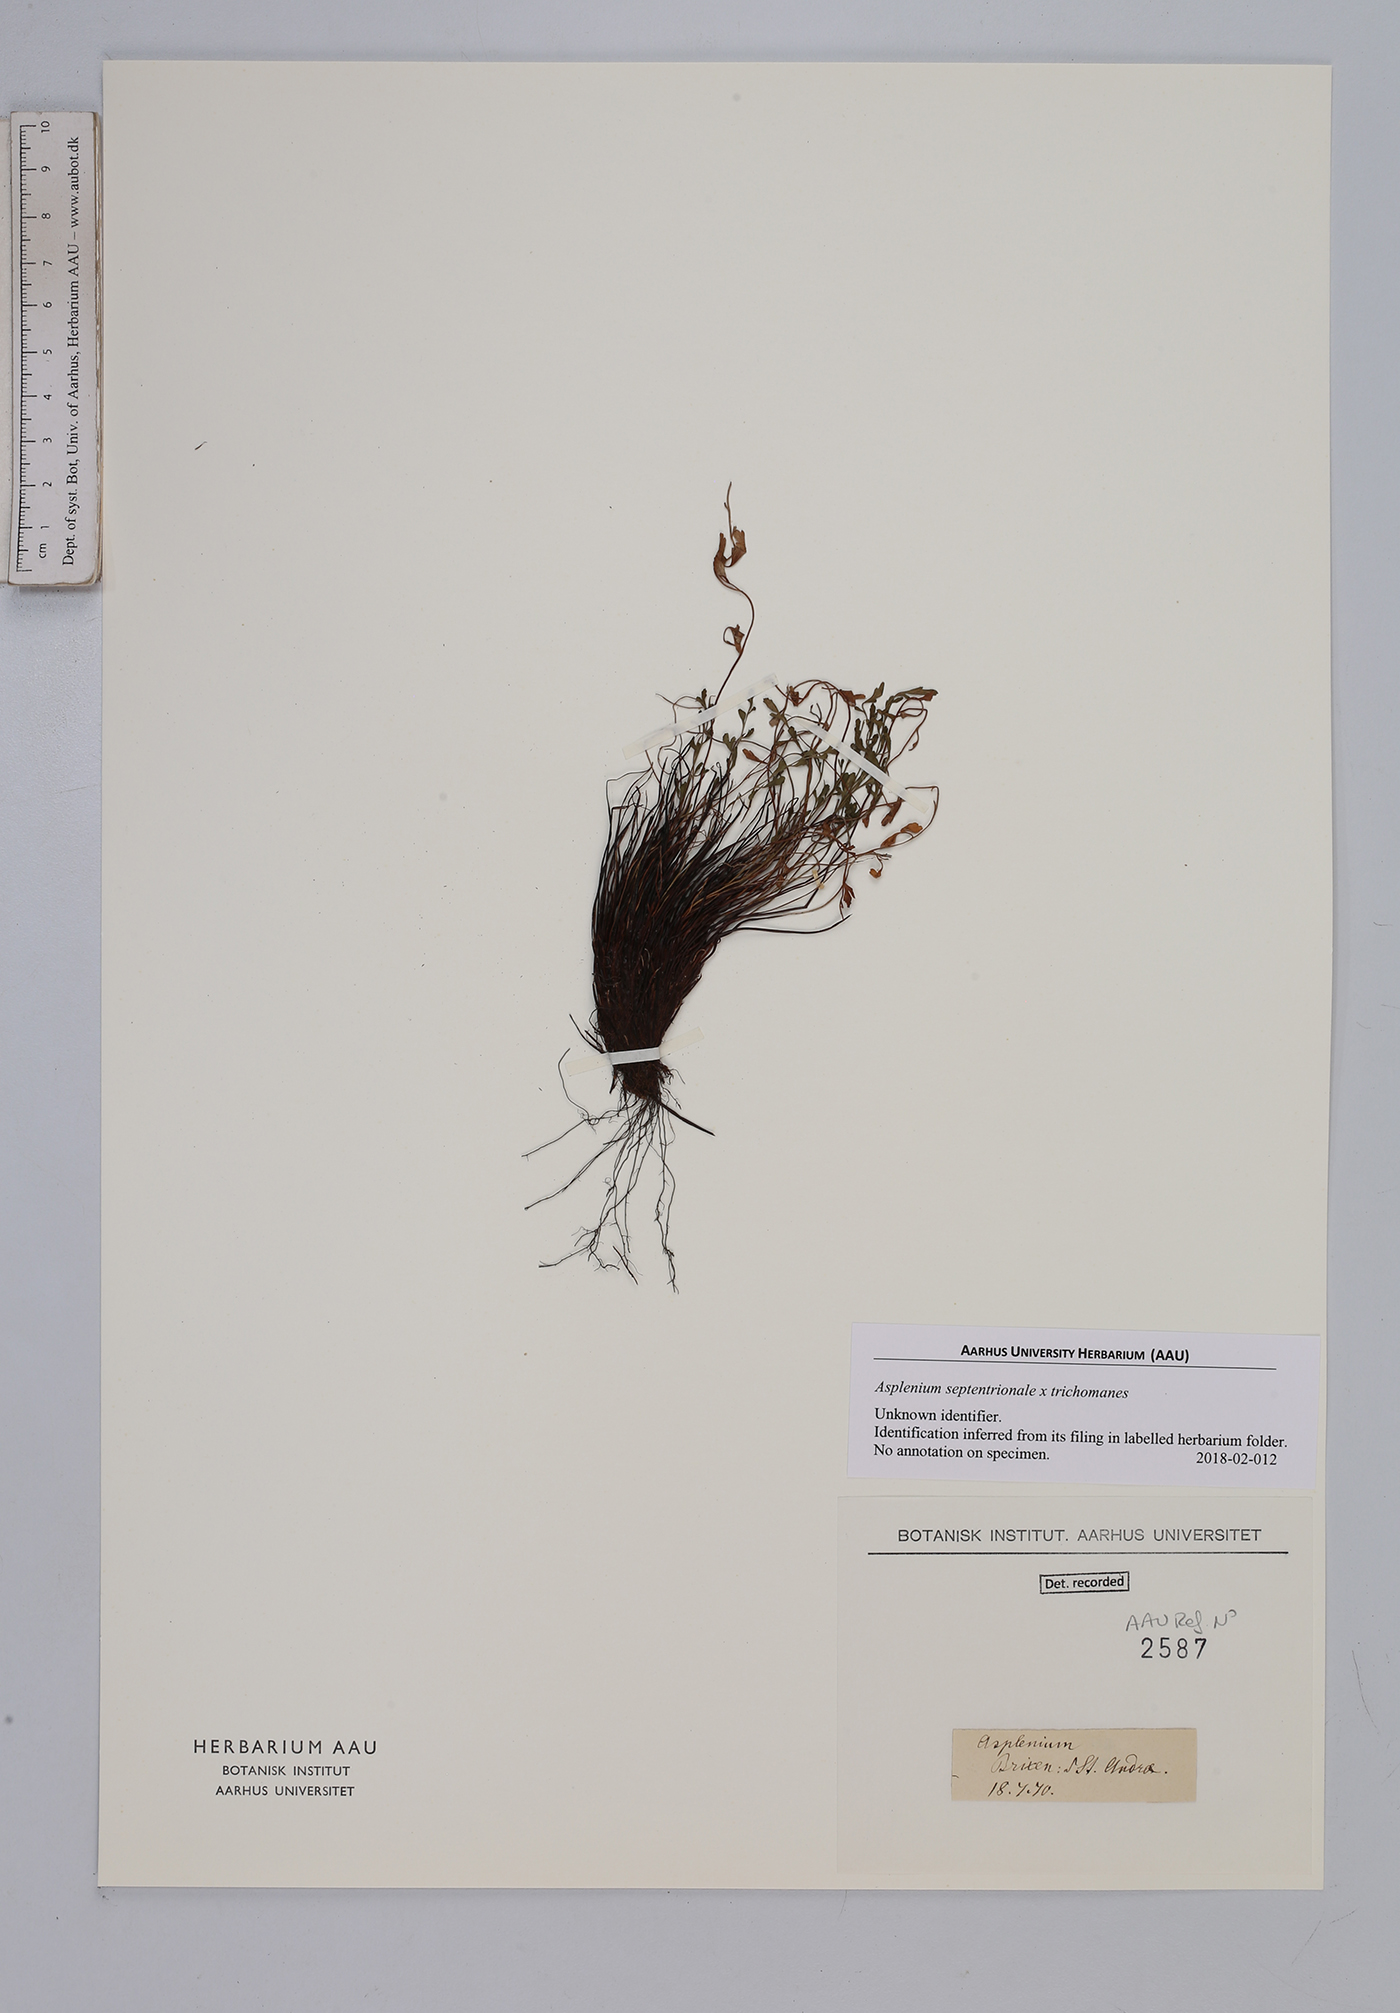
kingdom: Plantae
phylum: Tracheophyta
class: Polypodiopsida
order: Polypodiales
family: Aspleniaceae
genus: Asplenium
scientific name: Asplenium
